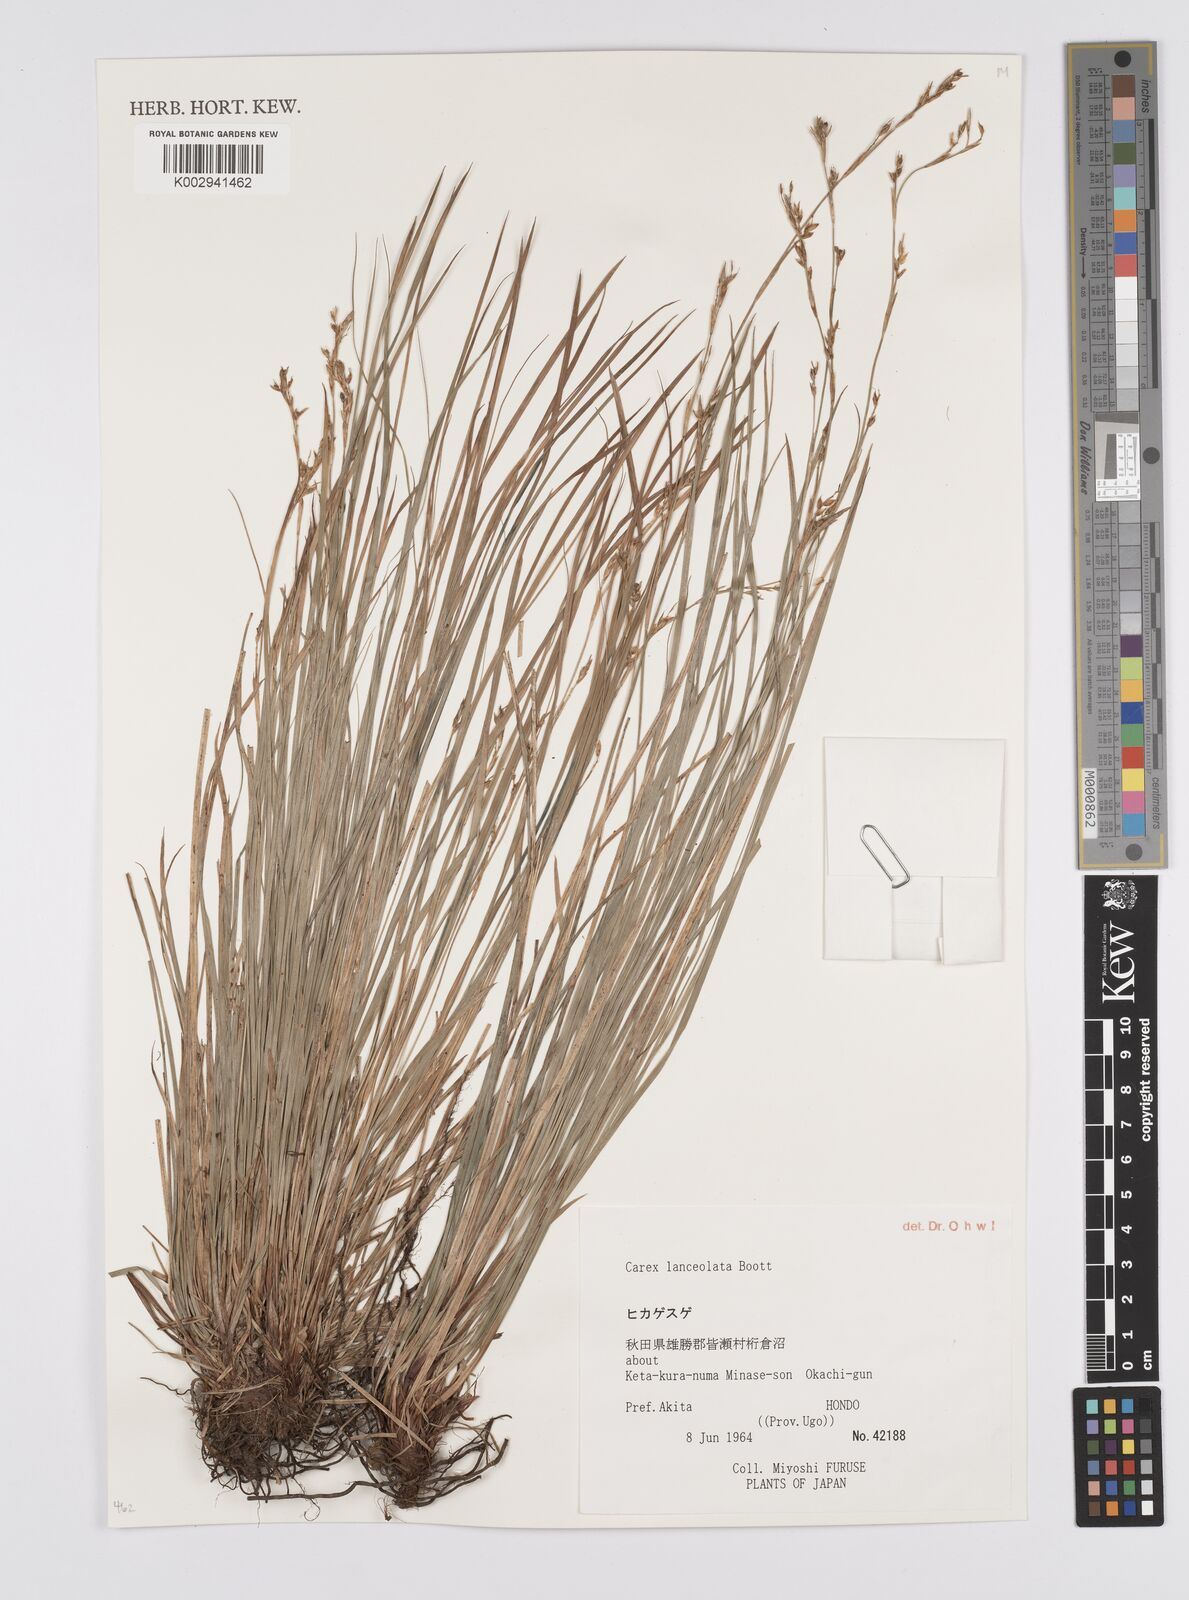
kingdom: Plantae
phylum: Tracheophyta
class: Liliopsida
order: Poales
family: Cyperaceae
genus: Carex
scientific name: Carex lanceolata
